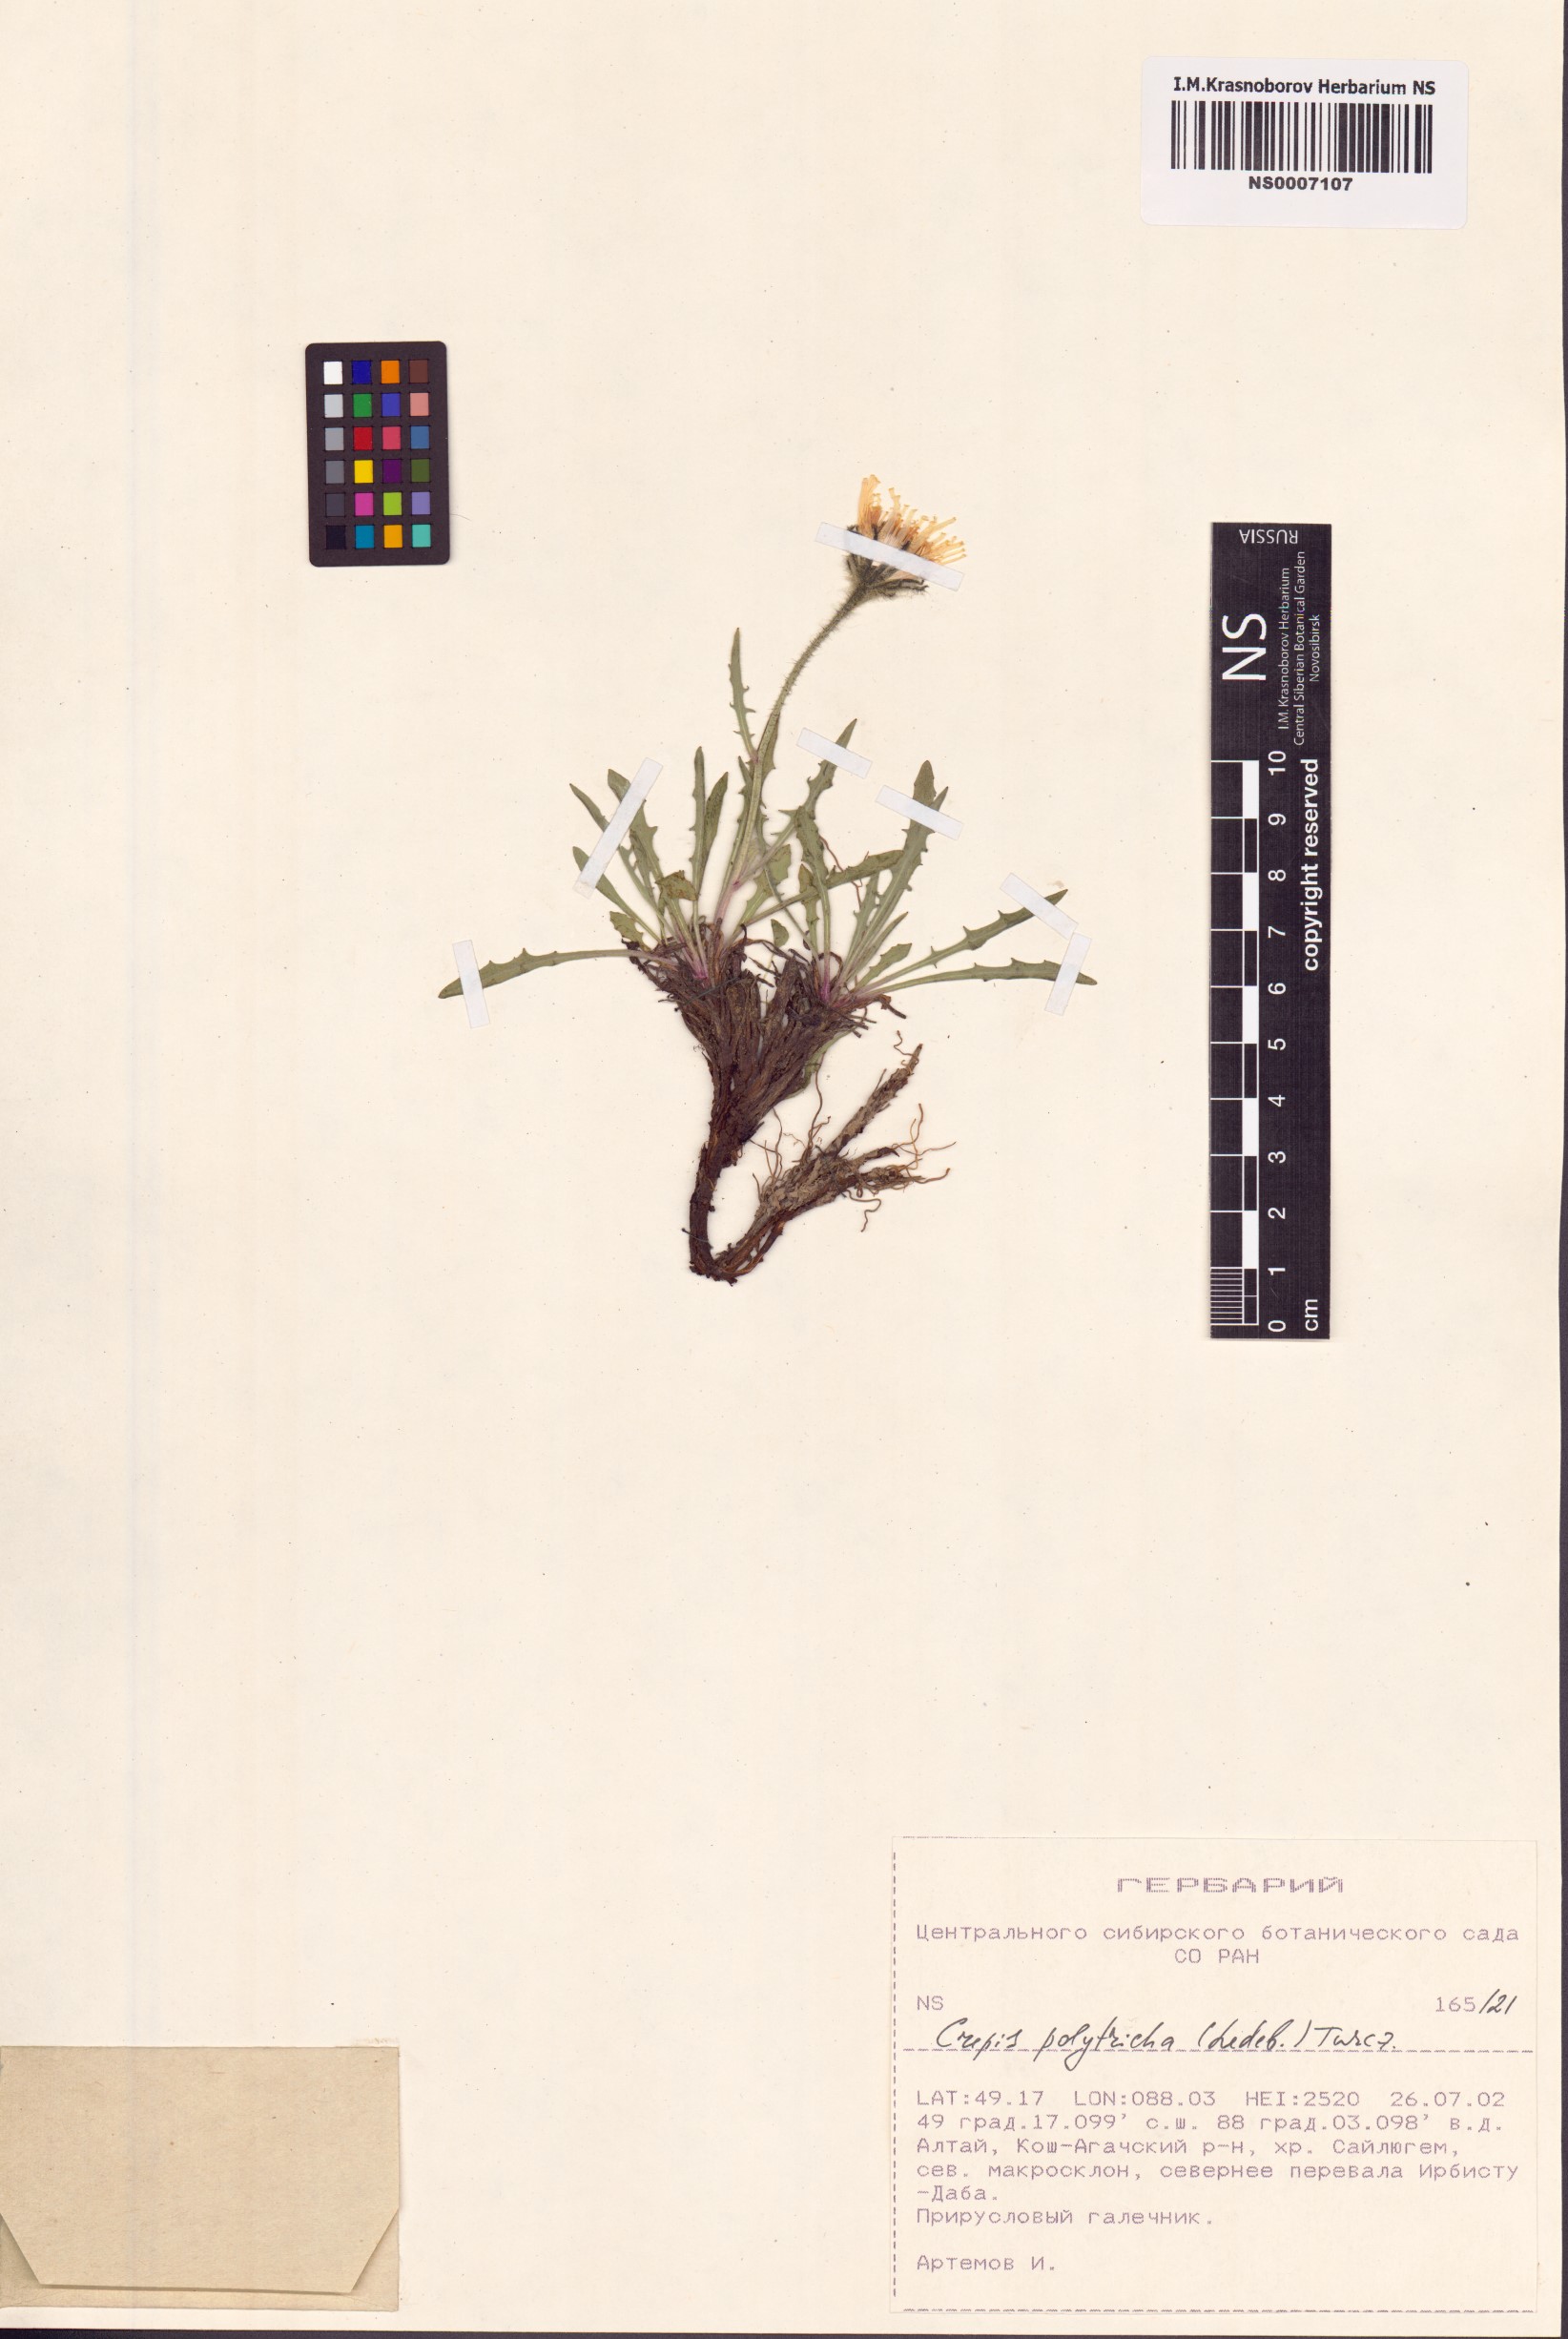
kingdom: Plantae
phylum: Tracheophyta
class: Magnoliopsida
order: Asterales
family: Asteraceae
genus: Crepis
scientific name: Crepis chrysantha
